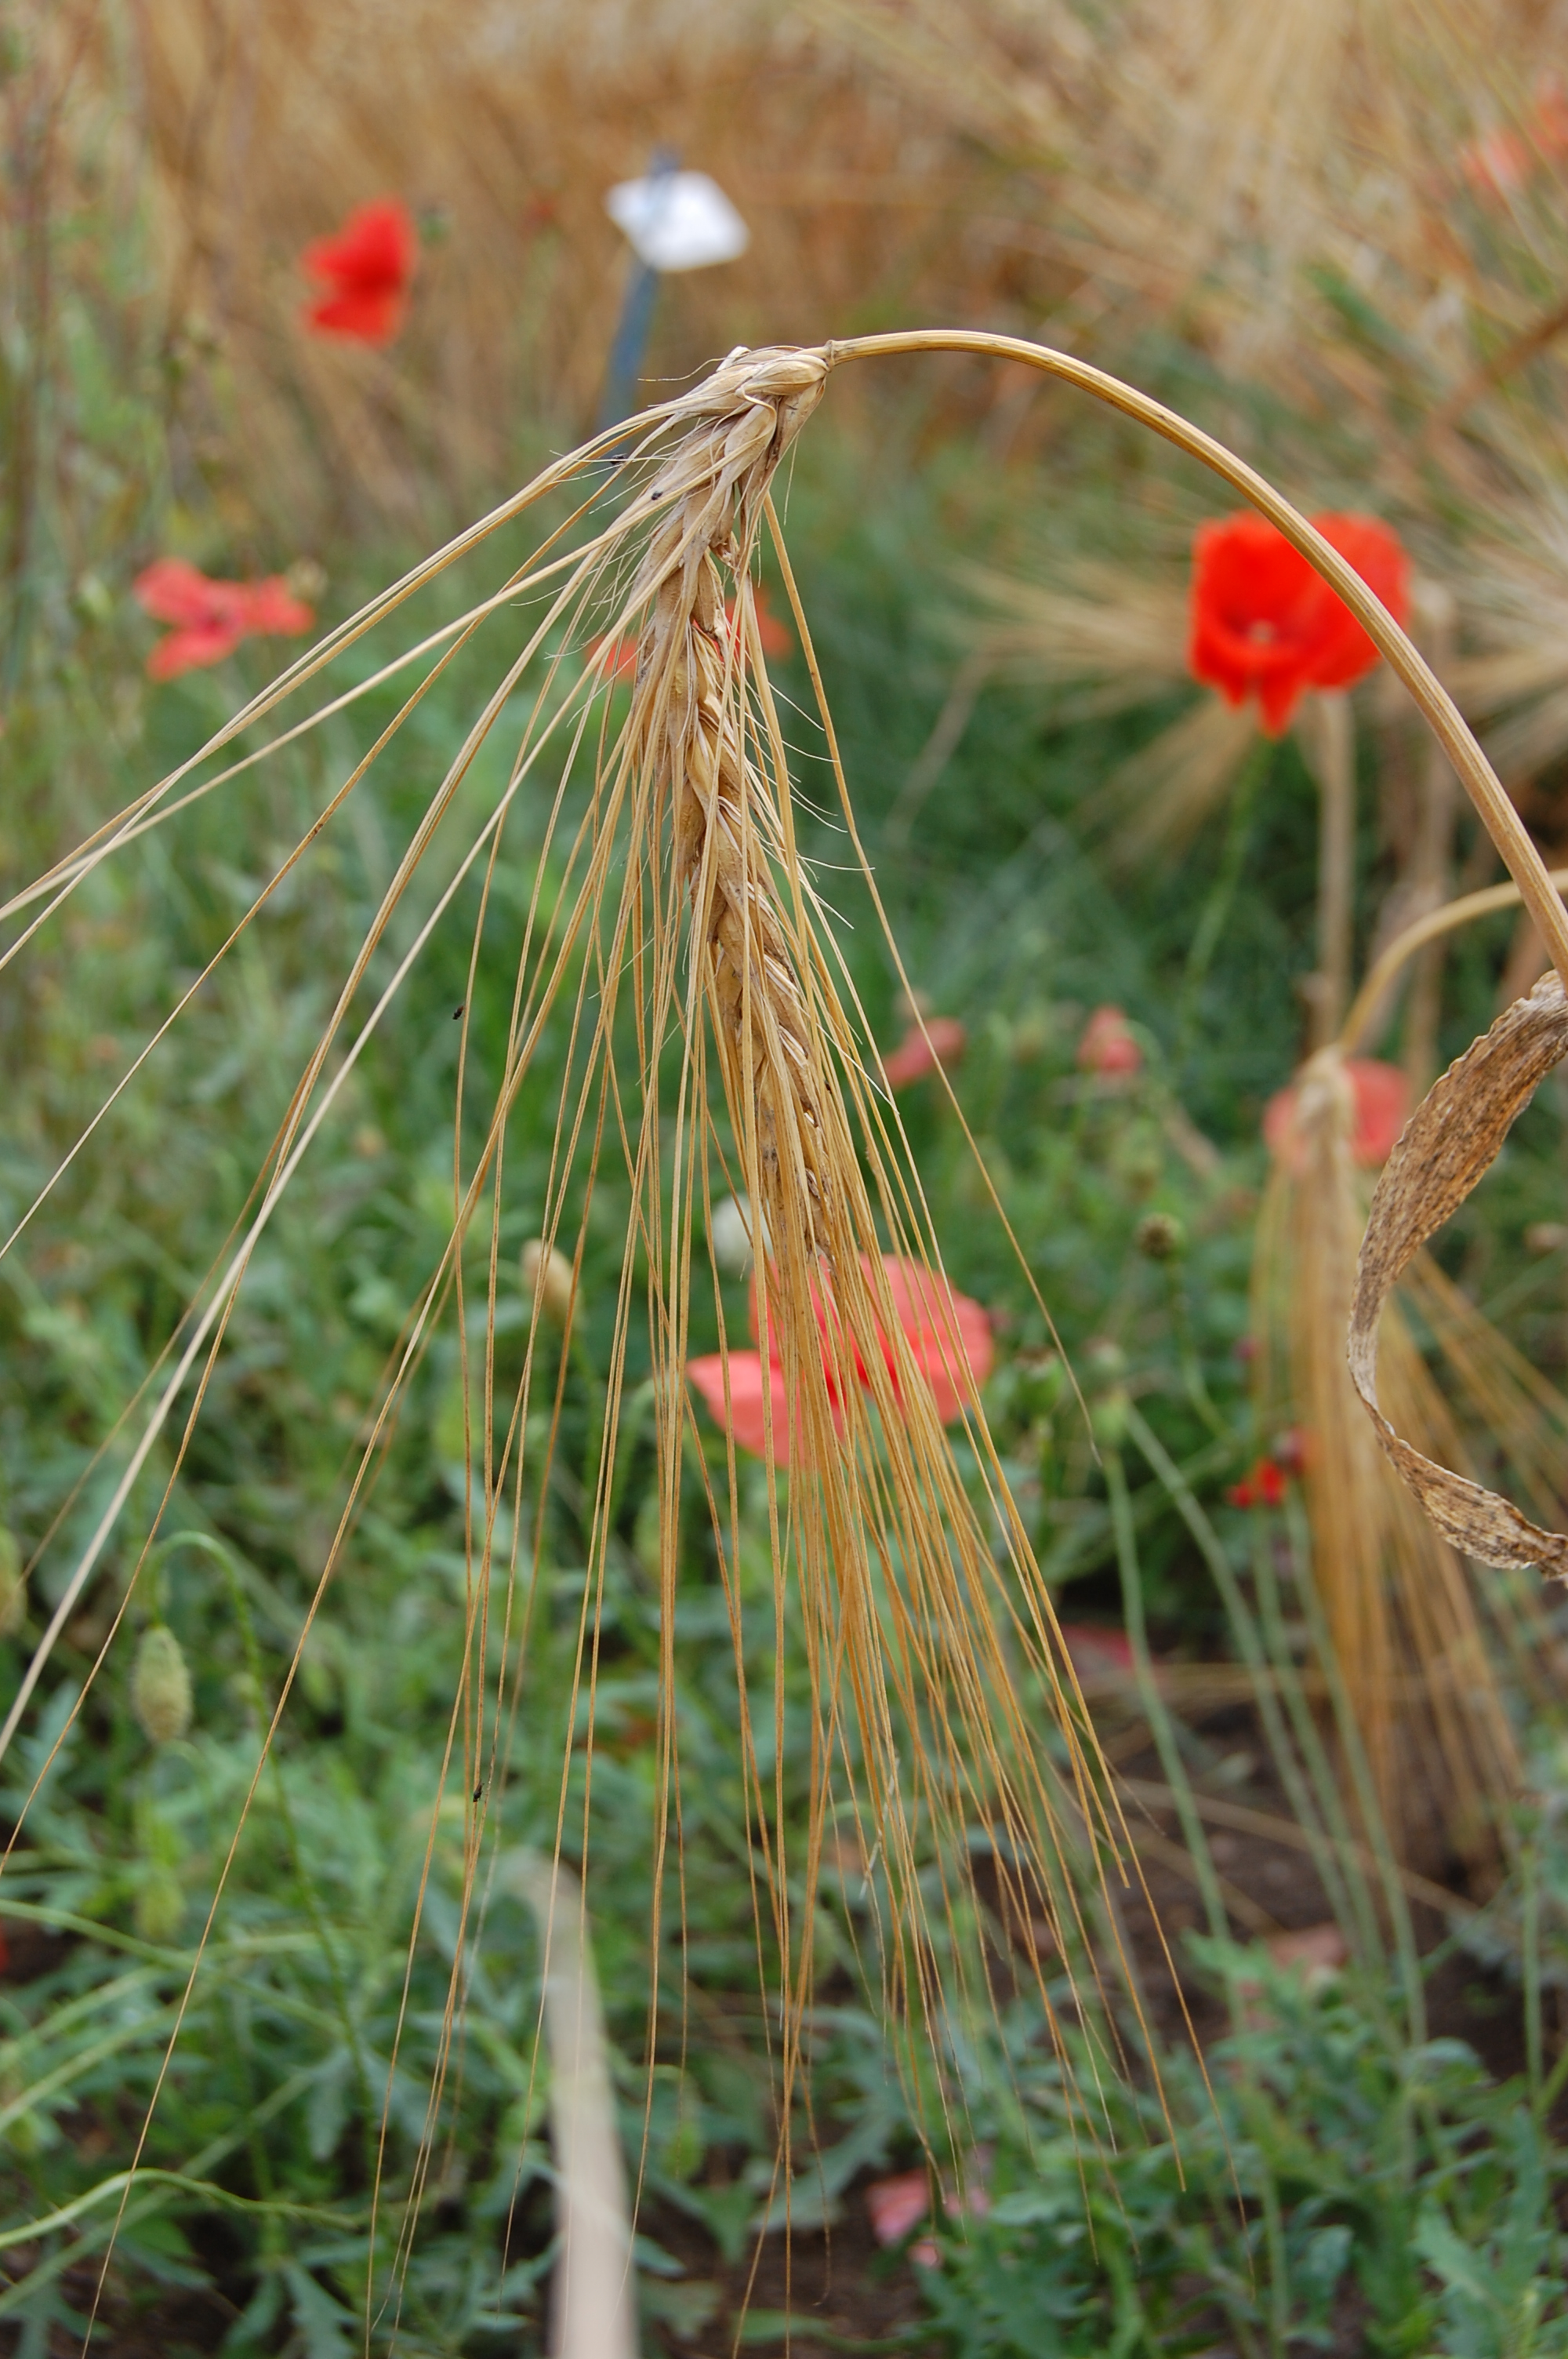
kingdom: Plantae
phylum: Tracheophyta
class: Liliopsida
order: Poales
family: Poaceae
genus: Hordeum
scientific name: Hordeum vulgare
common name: Common barley
